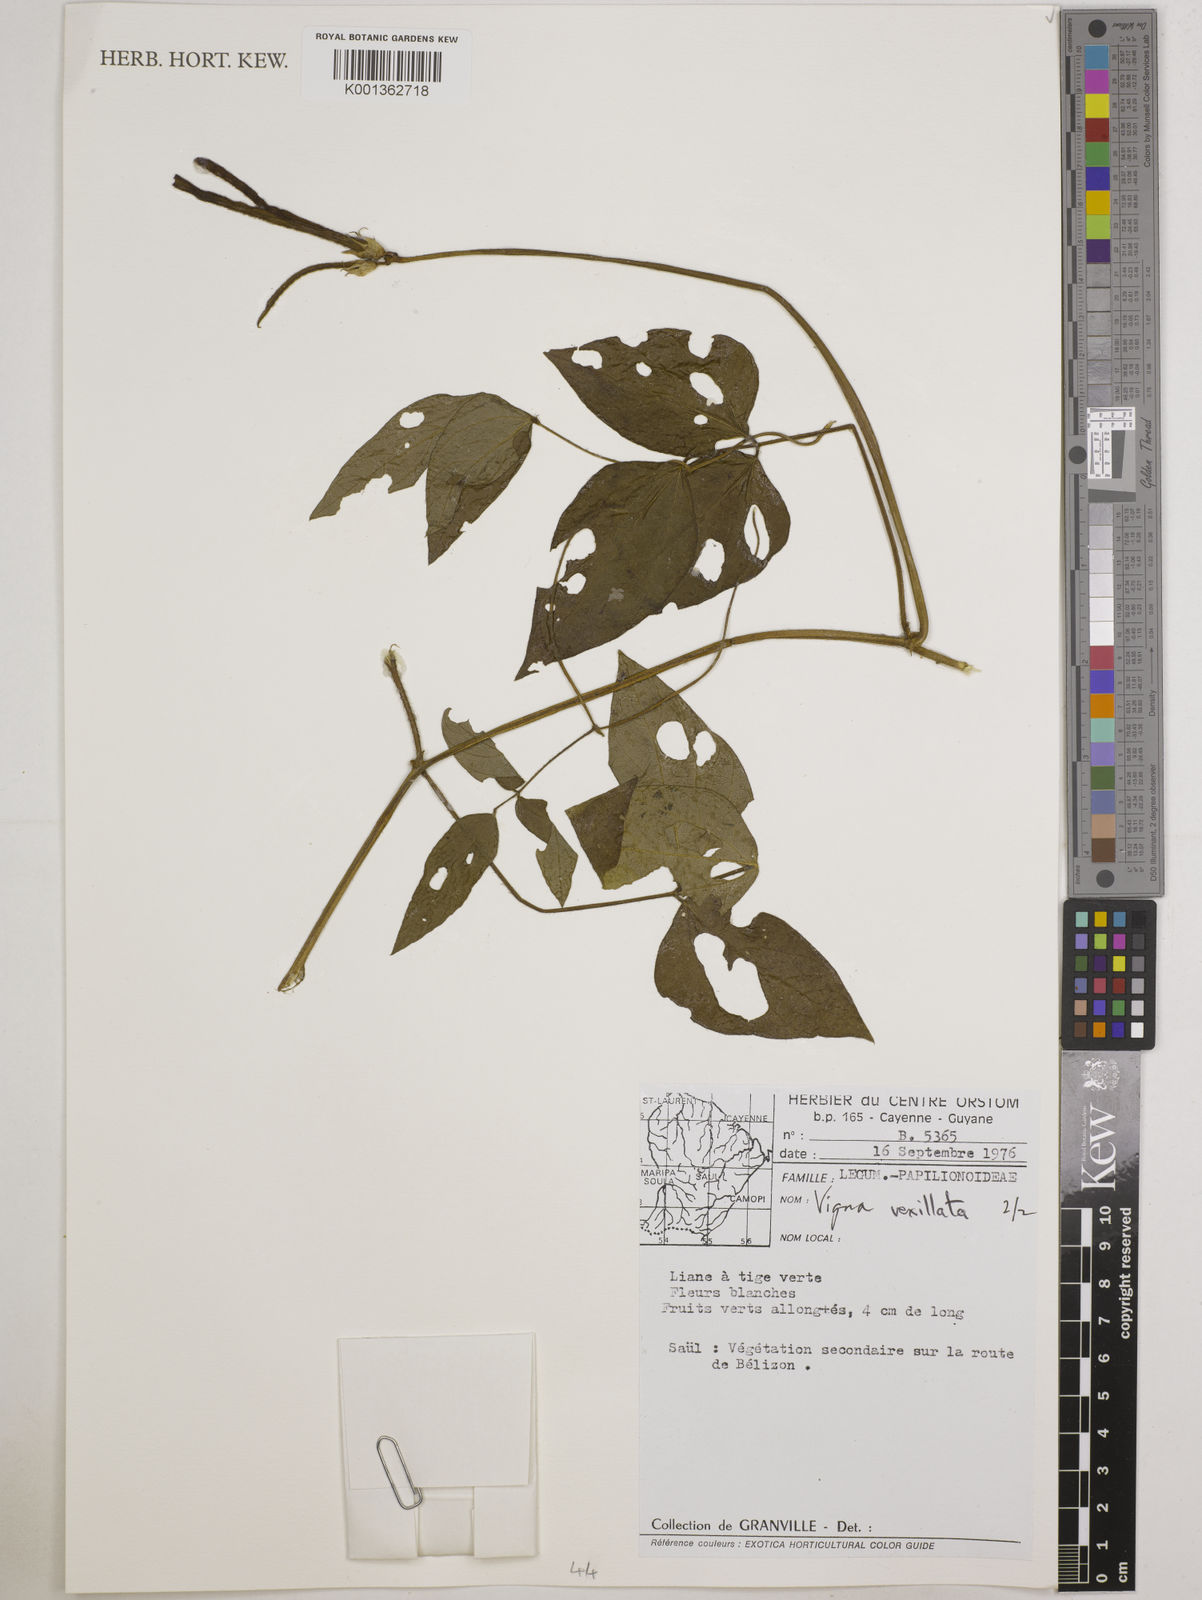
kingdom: Plantae
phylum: Tracheophyta
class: Magnoliopsida
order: Fabales
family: Fabaceae
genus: Vigna
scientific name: Vigna vexillata
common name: Zombi pea
